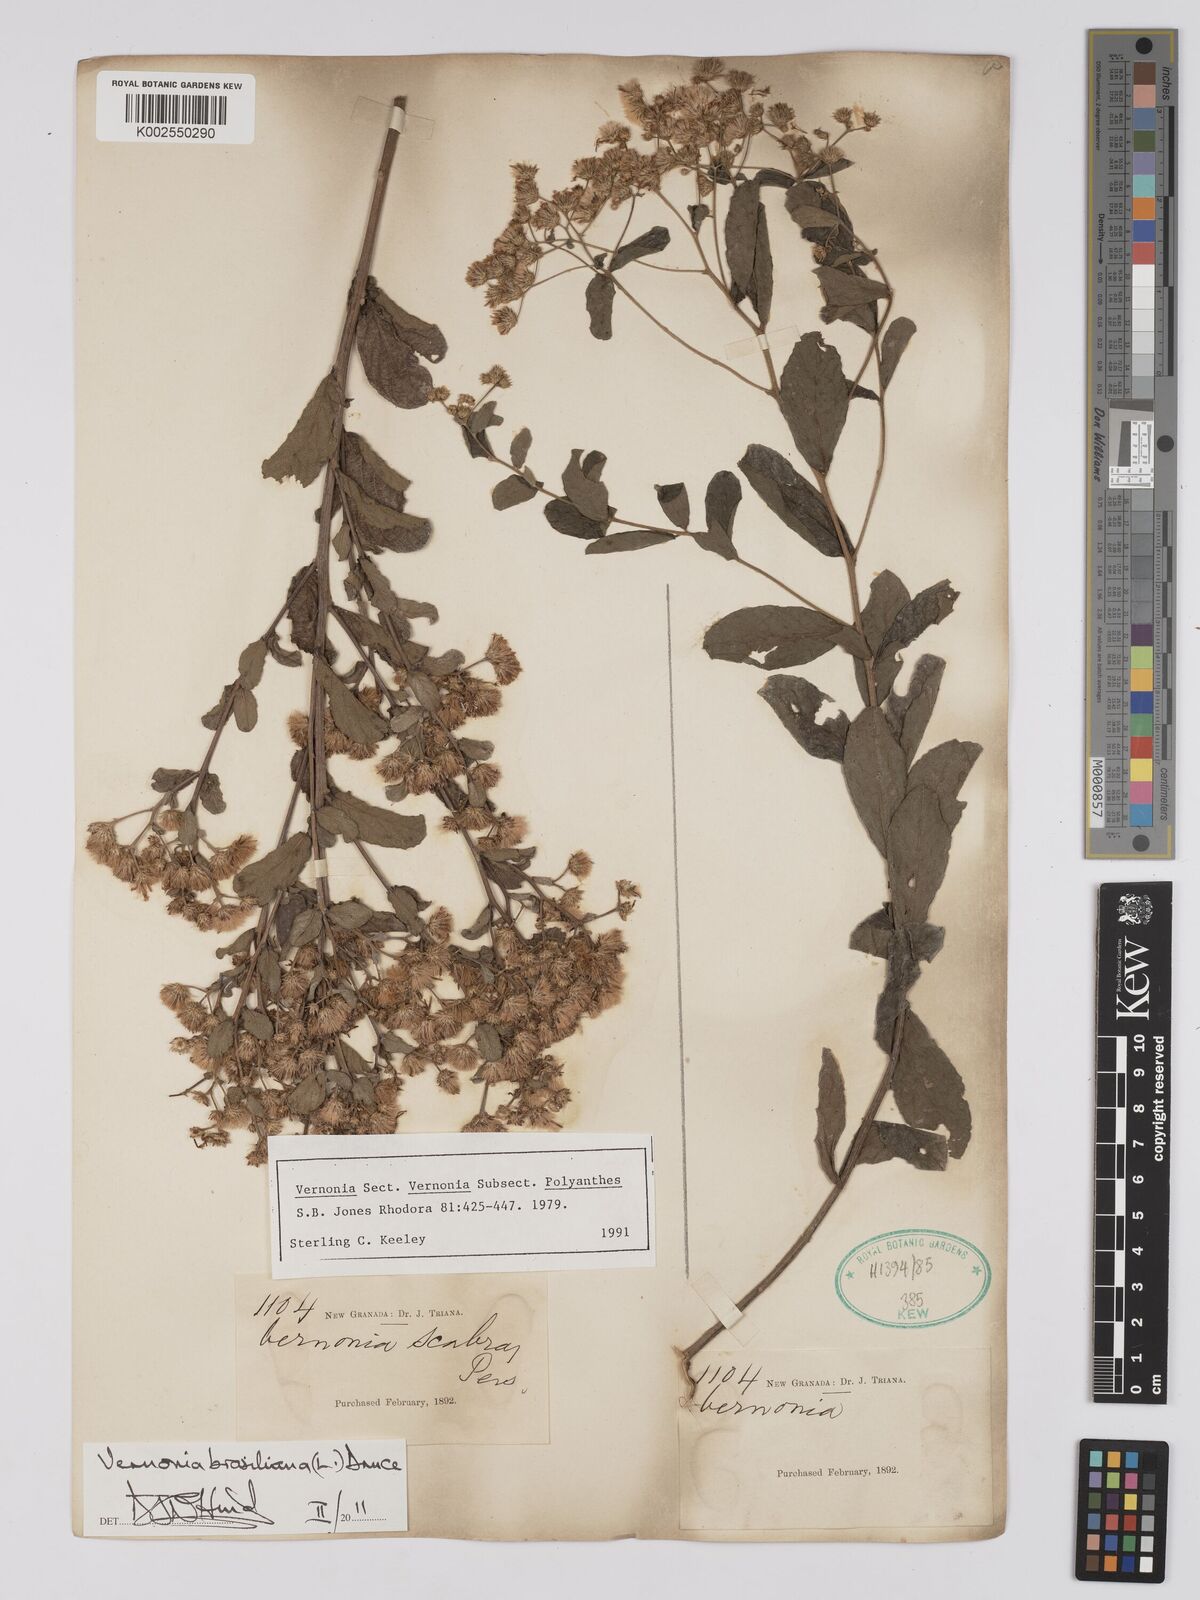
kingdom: Plantae
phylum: Tracheophyta
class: Magnoliopsida
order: Asterales
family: Asteraceae
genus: Vernonanthura
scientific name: Vernonanthura brasiliana
